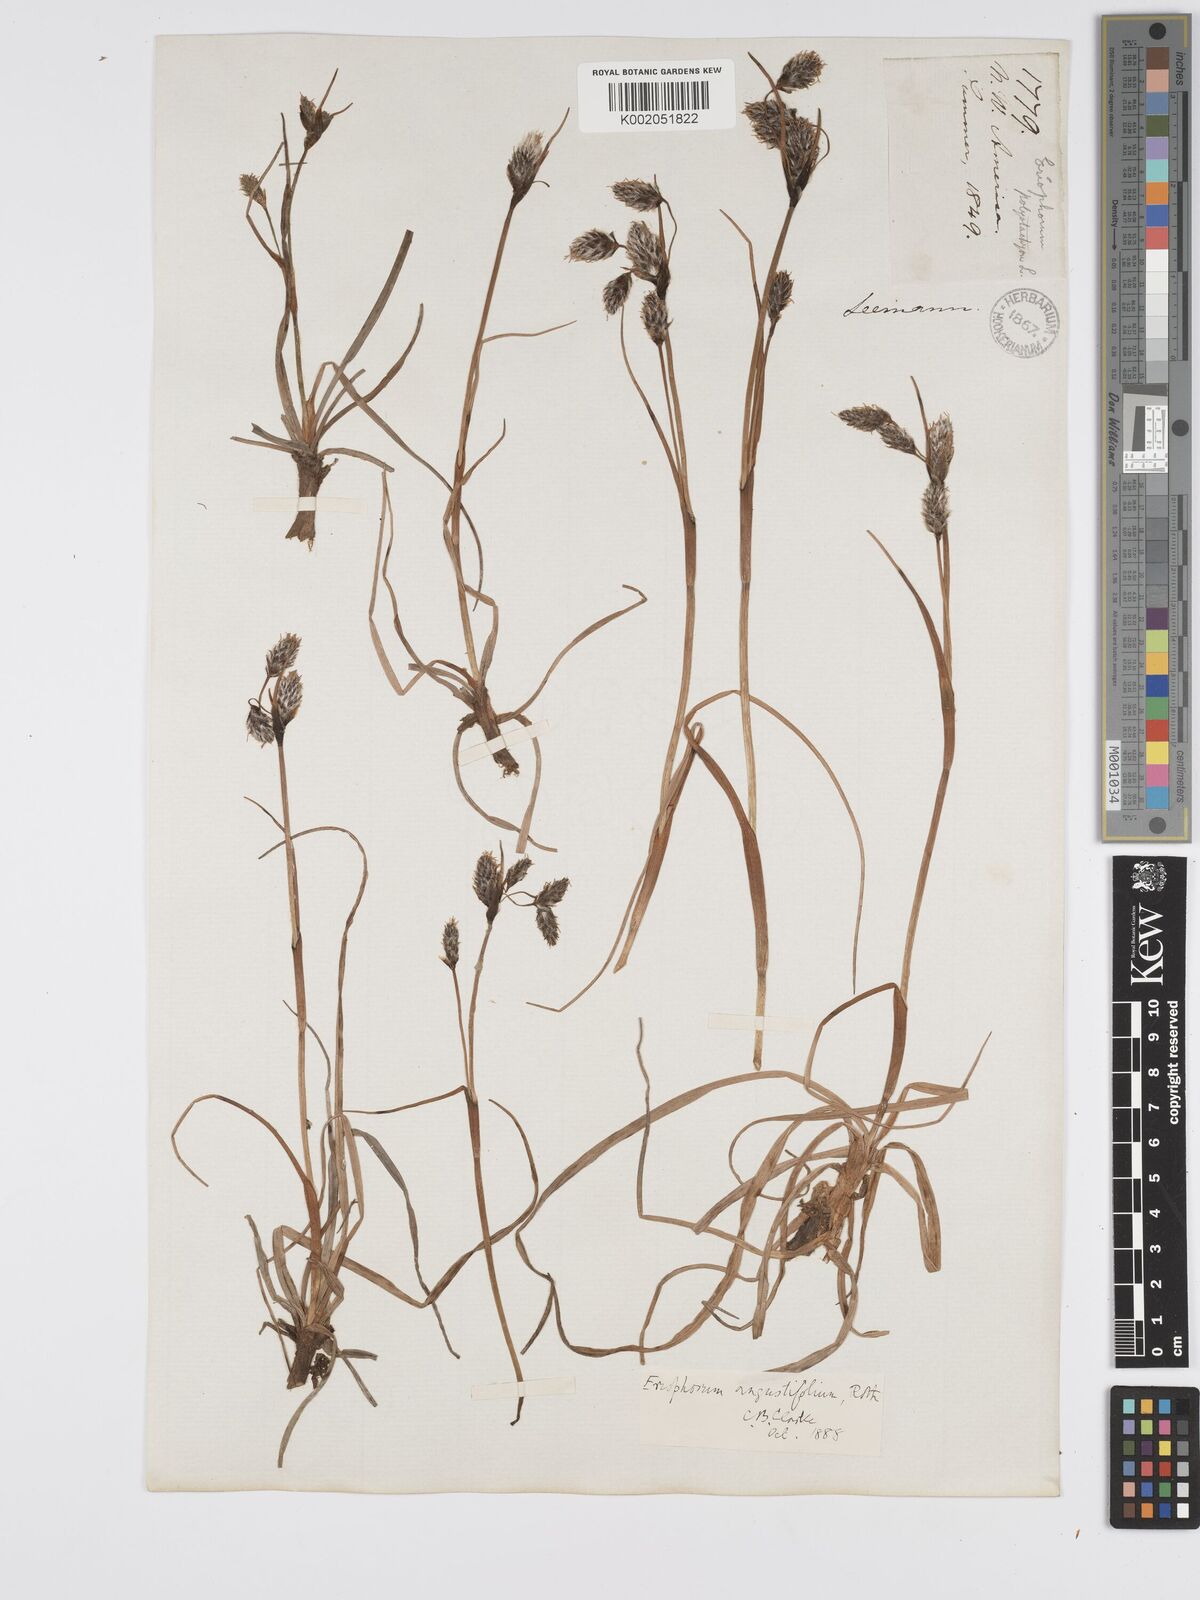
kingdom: Plantae
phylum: Tracheophyta
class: Liliopsida
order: Poales
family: Cyperaceae
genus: Eriophorum
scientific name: Eriophorum angustifolium
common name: Common cottongrass
